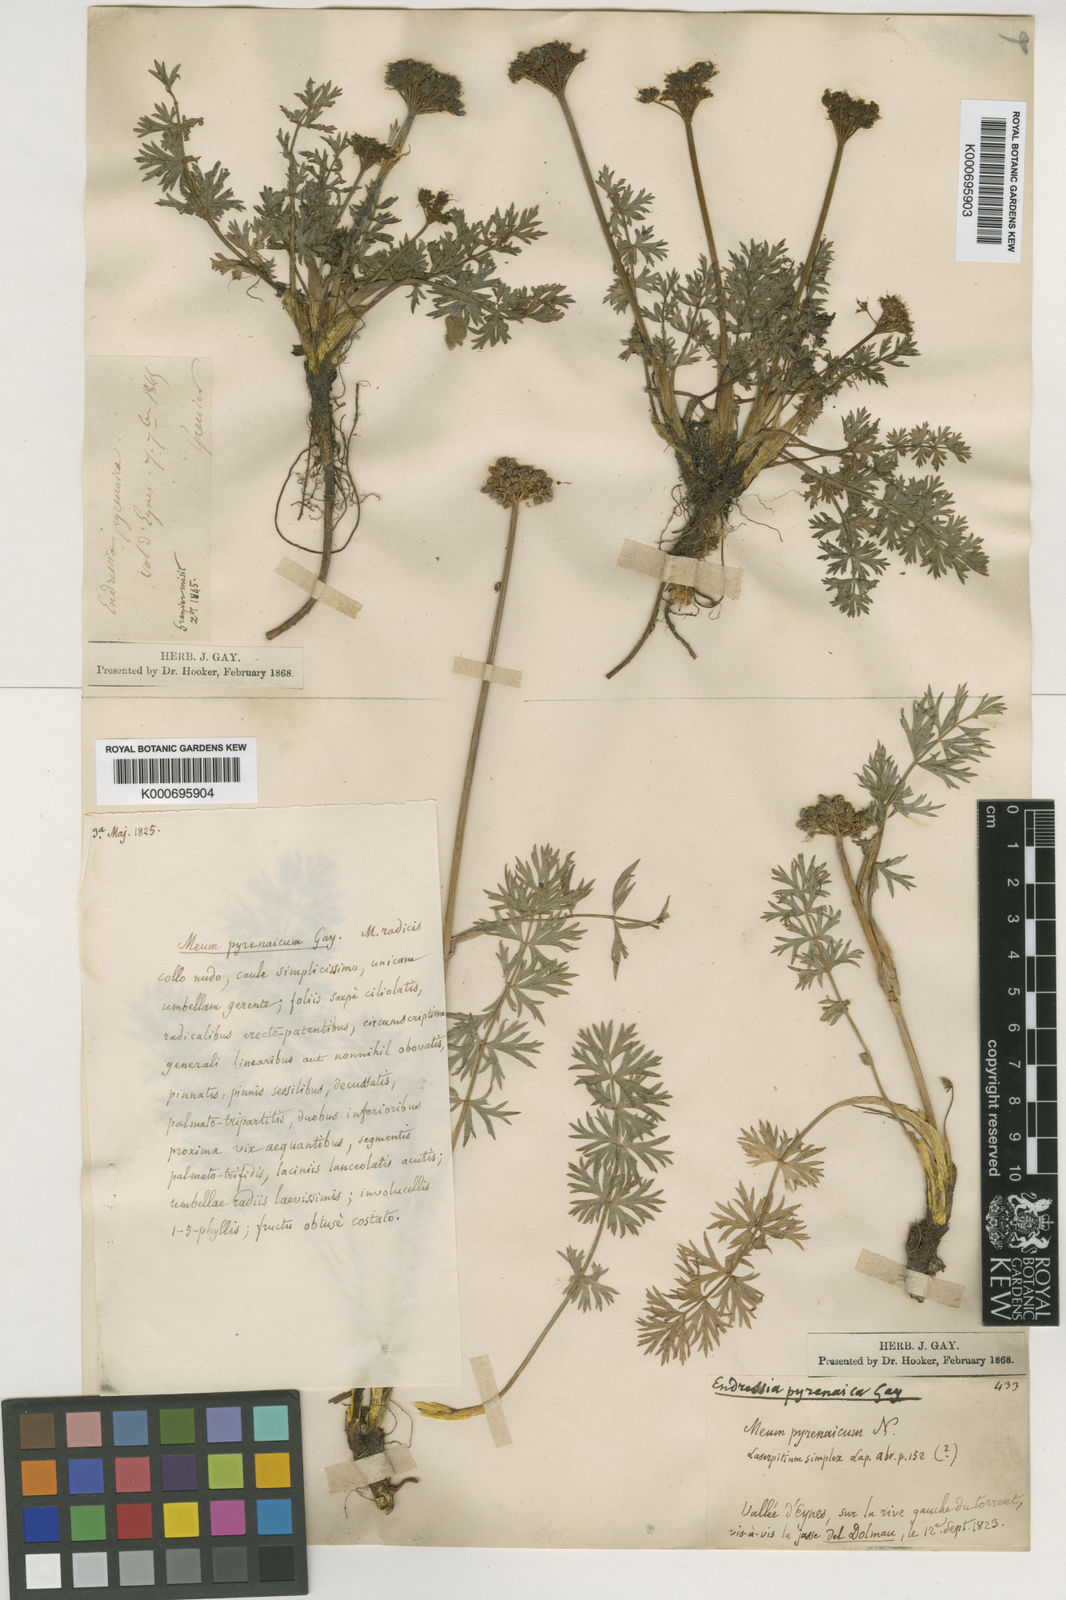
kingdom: Plantae
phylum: Tracheophyta
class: Magnoliopsida
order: Apiales
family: Apiaceae
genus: Endressia
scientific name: Endressia pyrenaica
